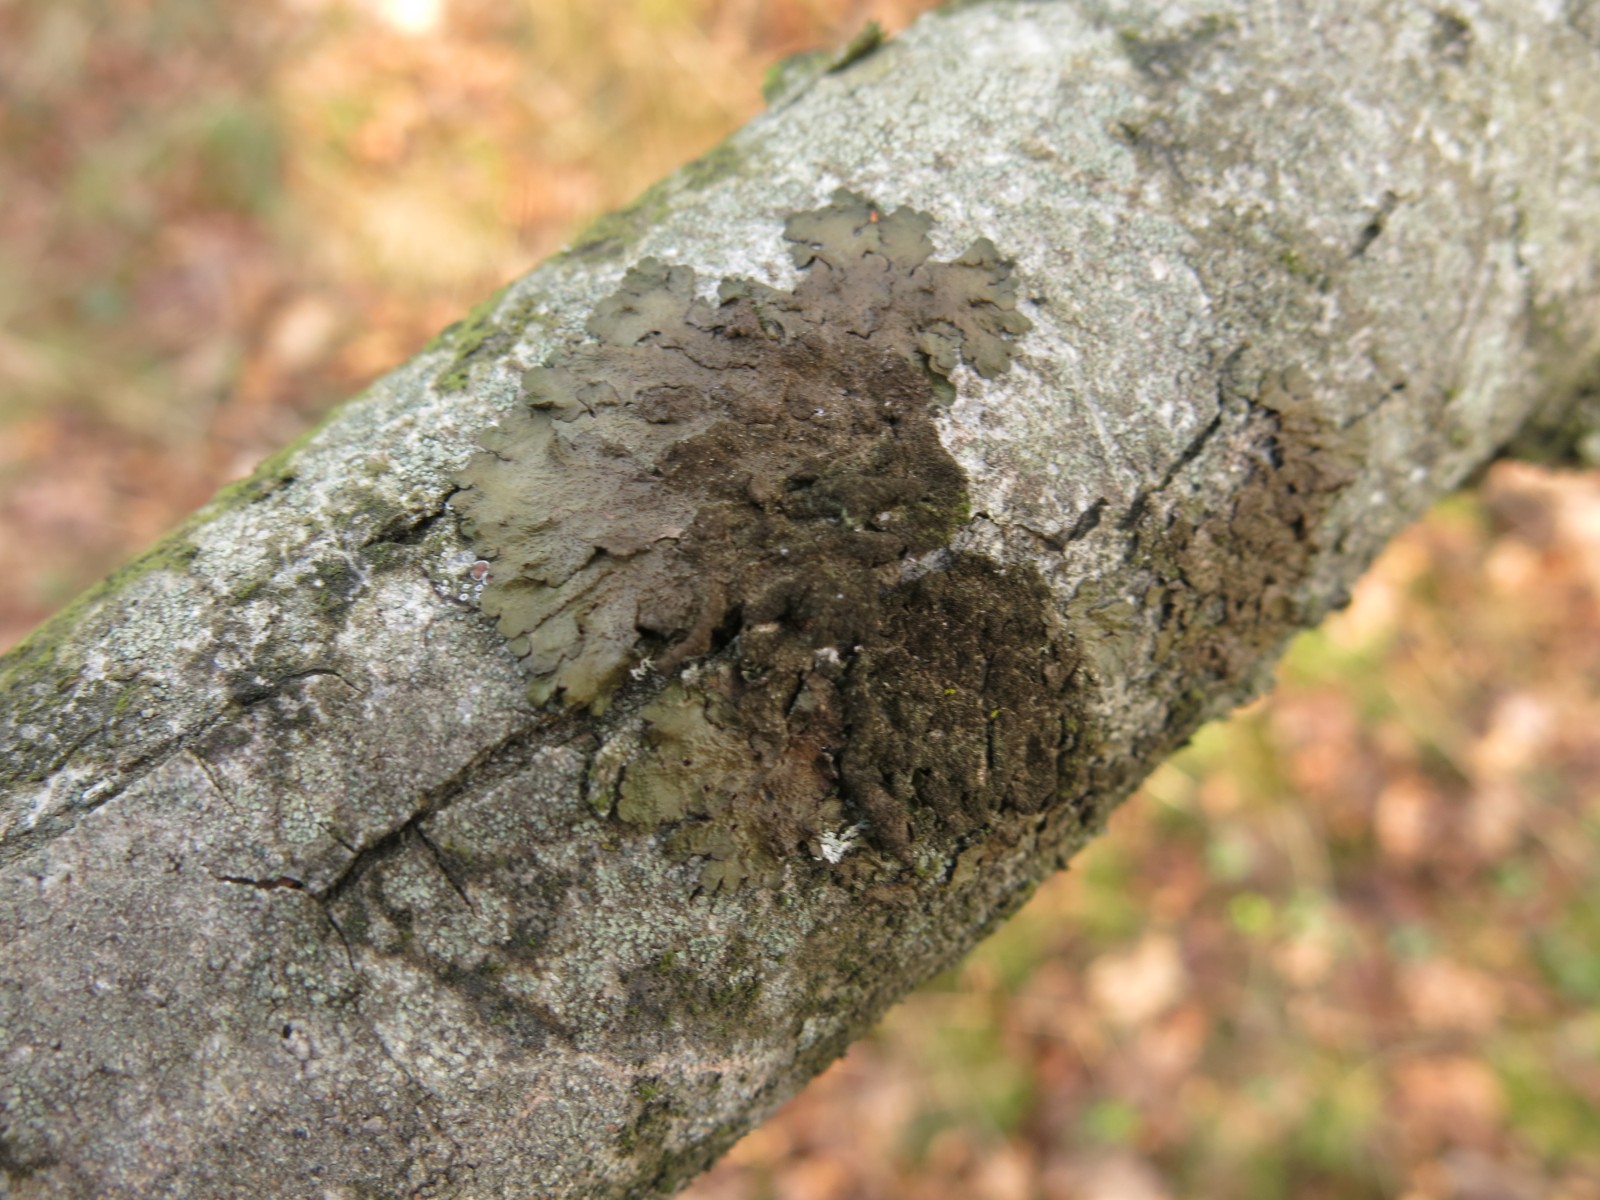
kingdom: Fungi
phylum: Ascomycota
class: Lecanoromycetes
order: Lecanorales
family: Parmeliaceae
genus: Melanelixia
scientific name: Melanelixia subaurifera
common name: guldpudret skållav
